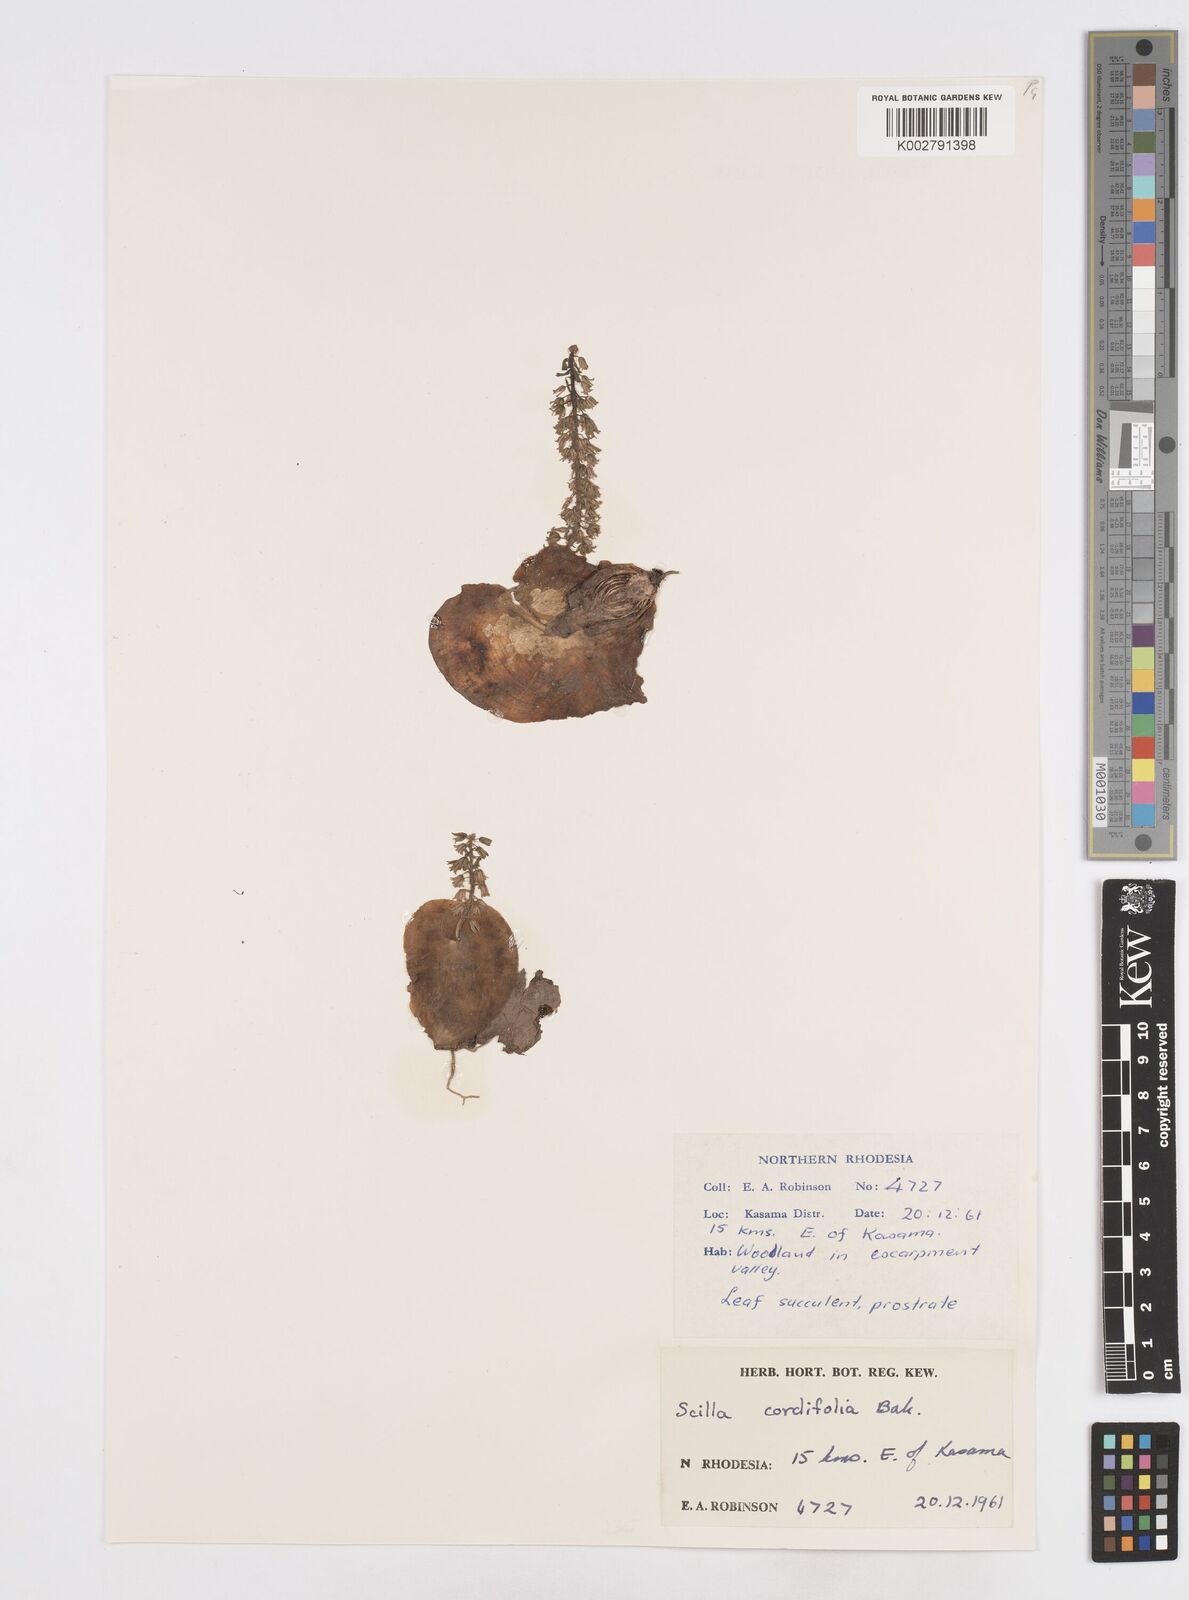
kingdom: Plantae
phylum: Tracheophyta
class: Liliopsida
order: Asparagales
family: Asparagaceae
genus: Ledebouria
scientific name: Ledebouria cordifolia
